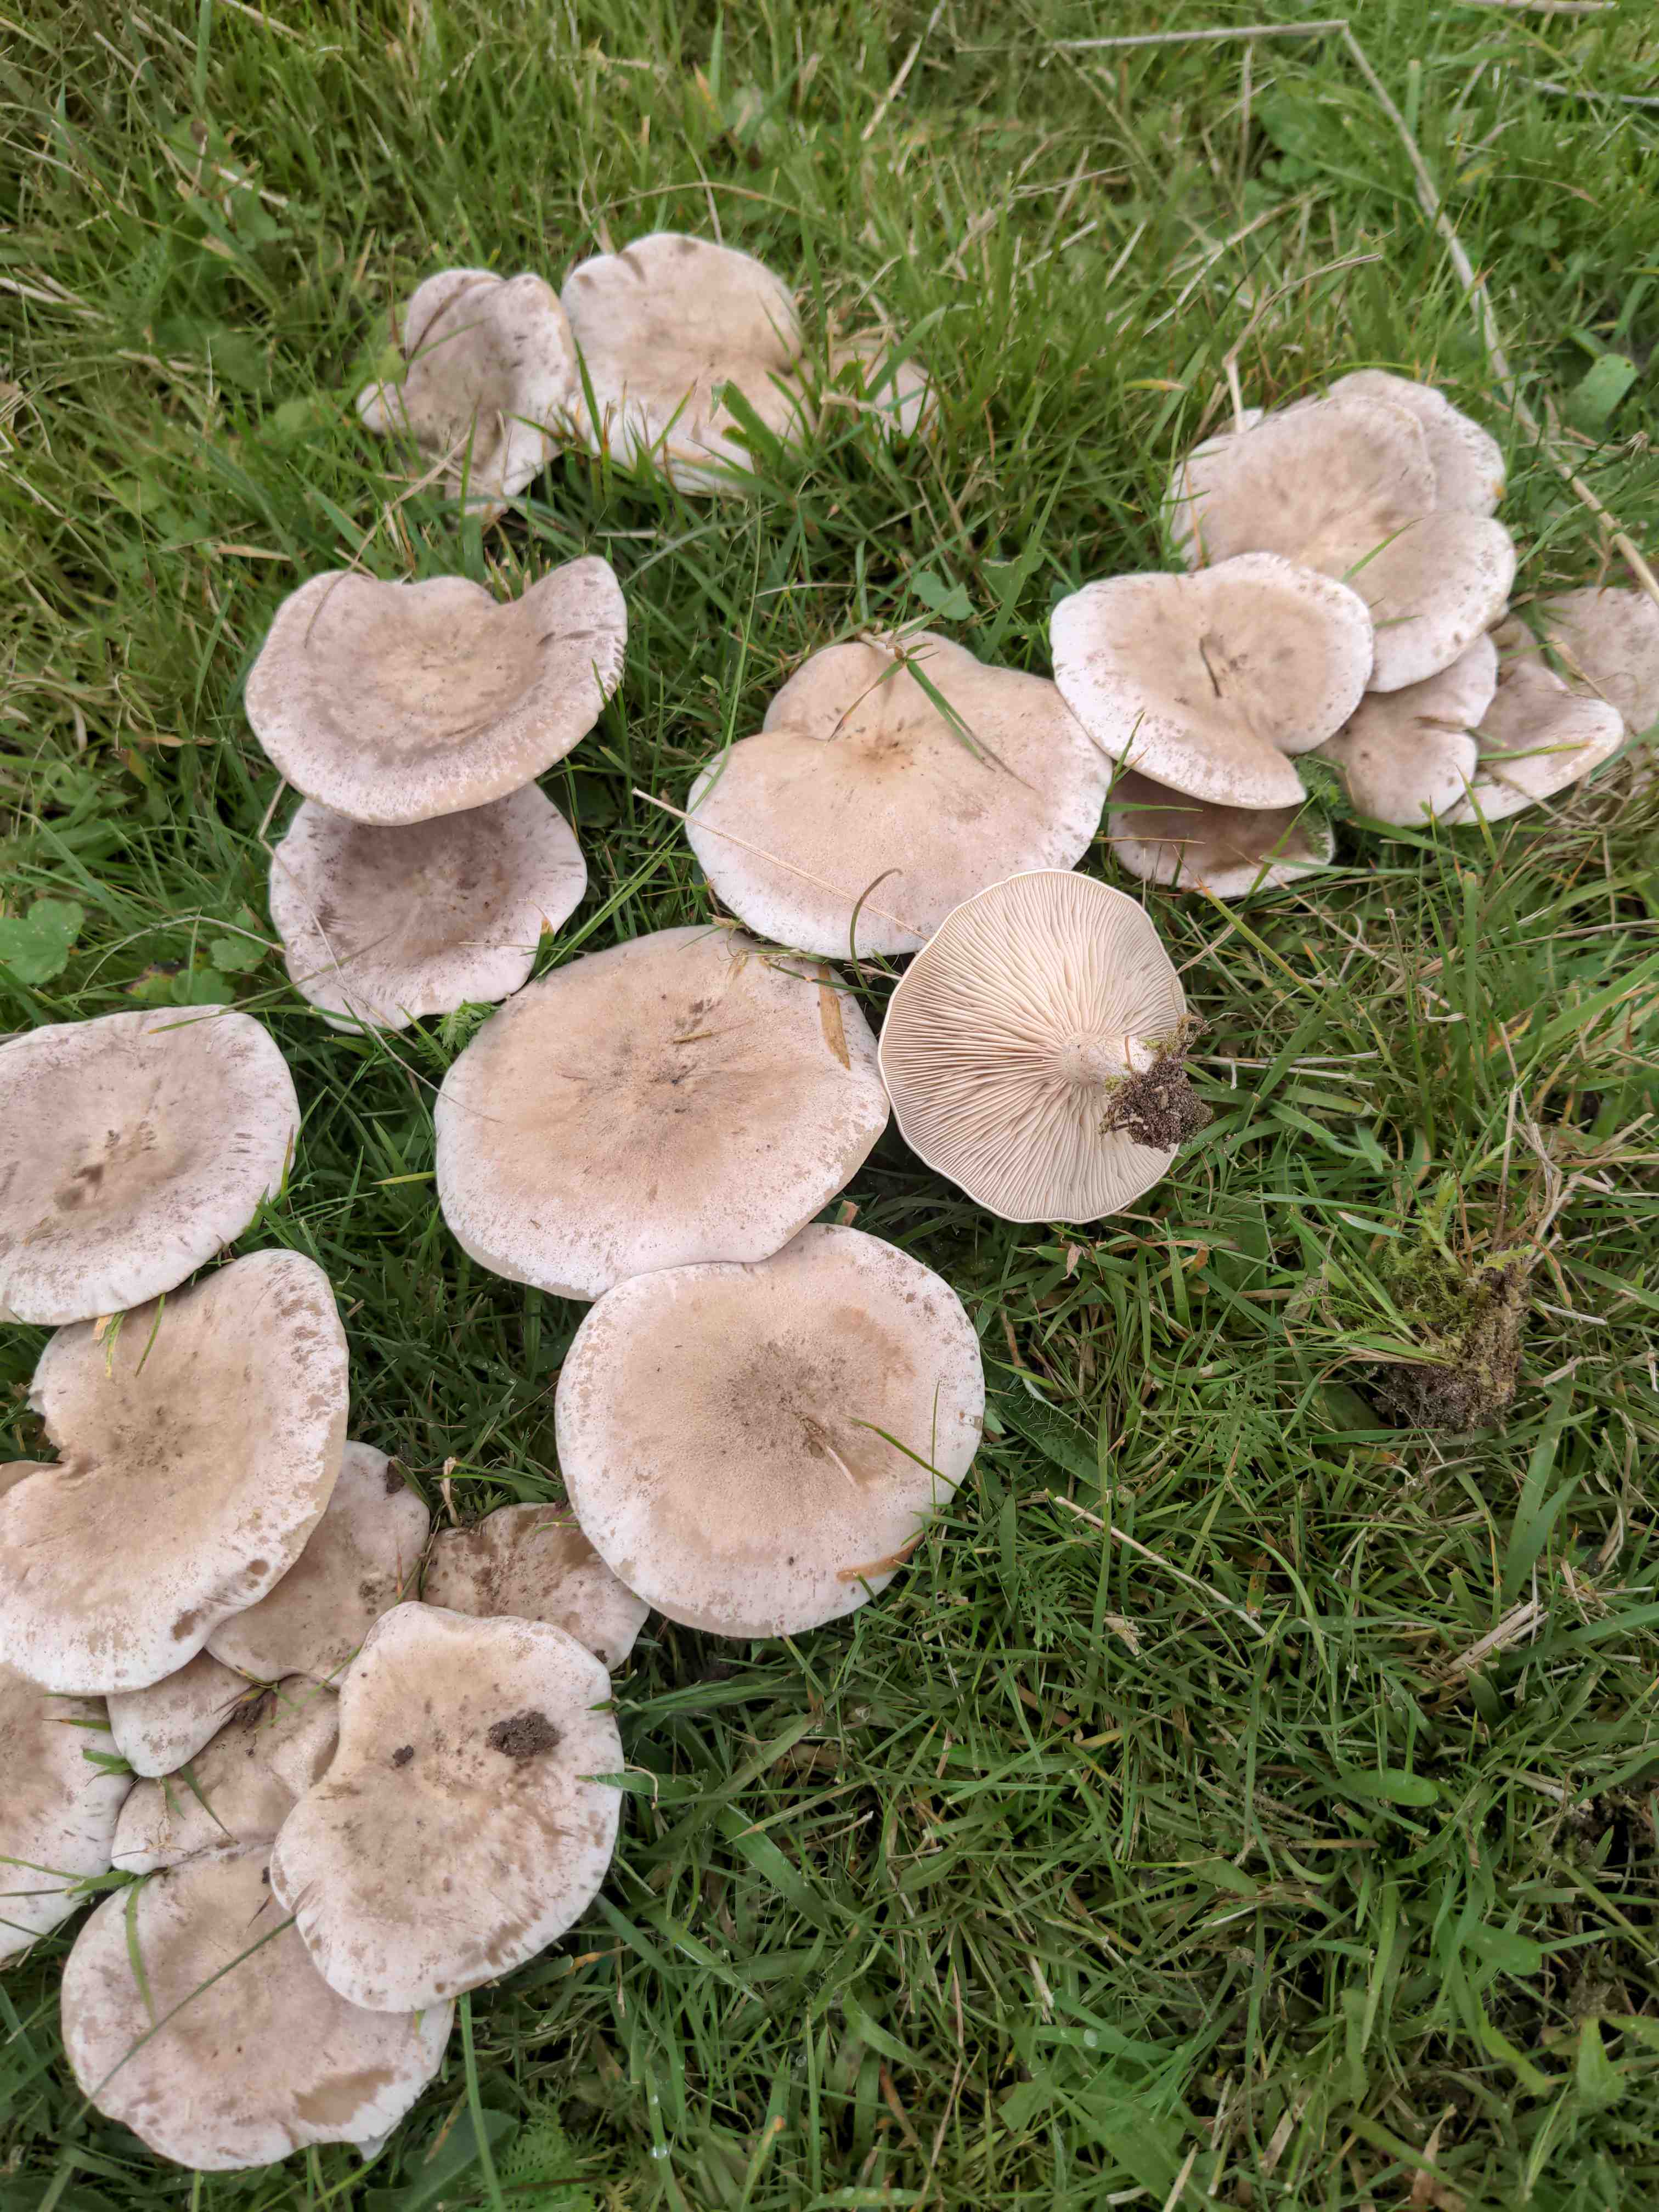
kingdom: Fungi
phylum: Basidiomycota
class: Agaricomycetes
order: Agaricales
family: Tricholomataceae
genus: Lepista
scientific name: Lepista panaeolus
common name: marmoreret hekseringshat
